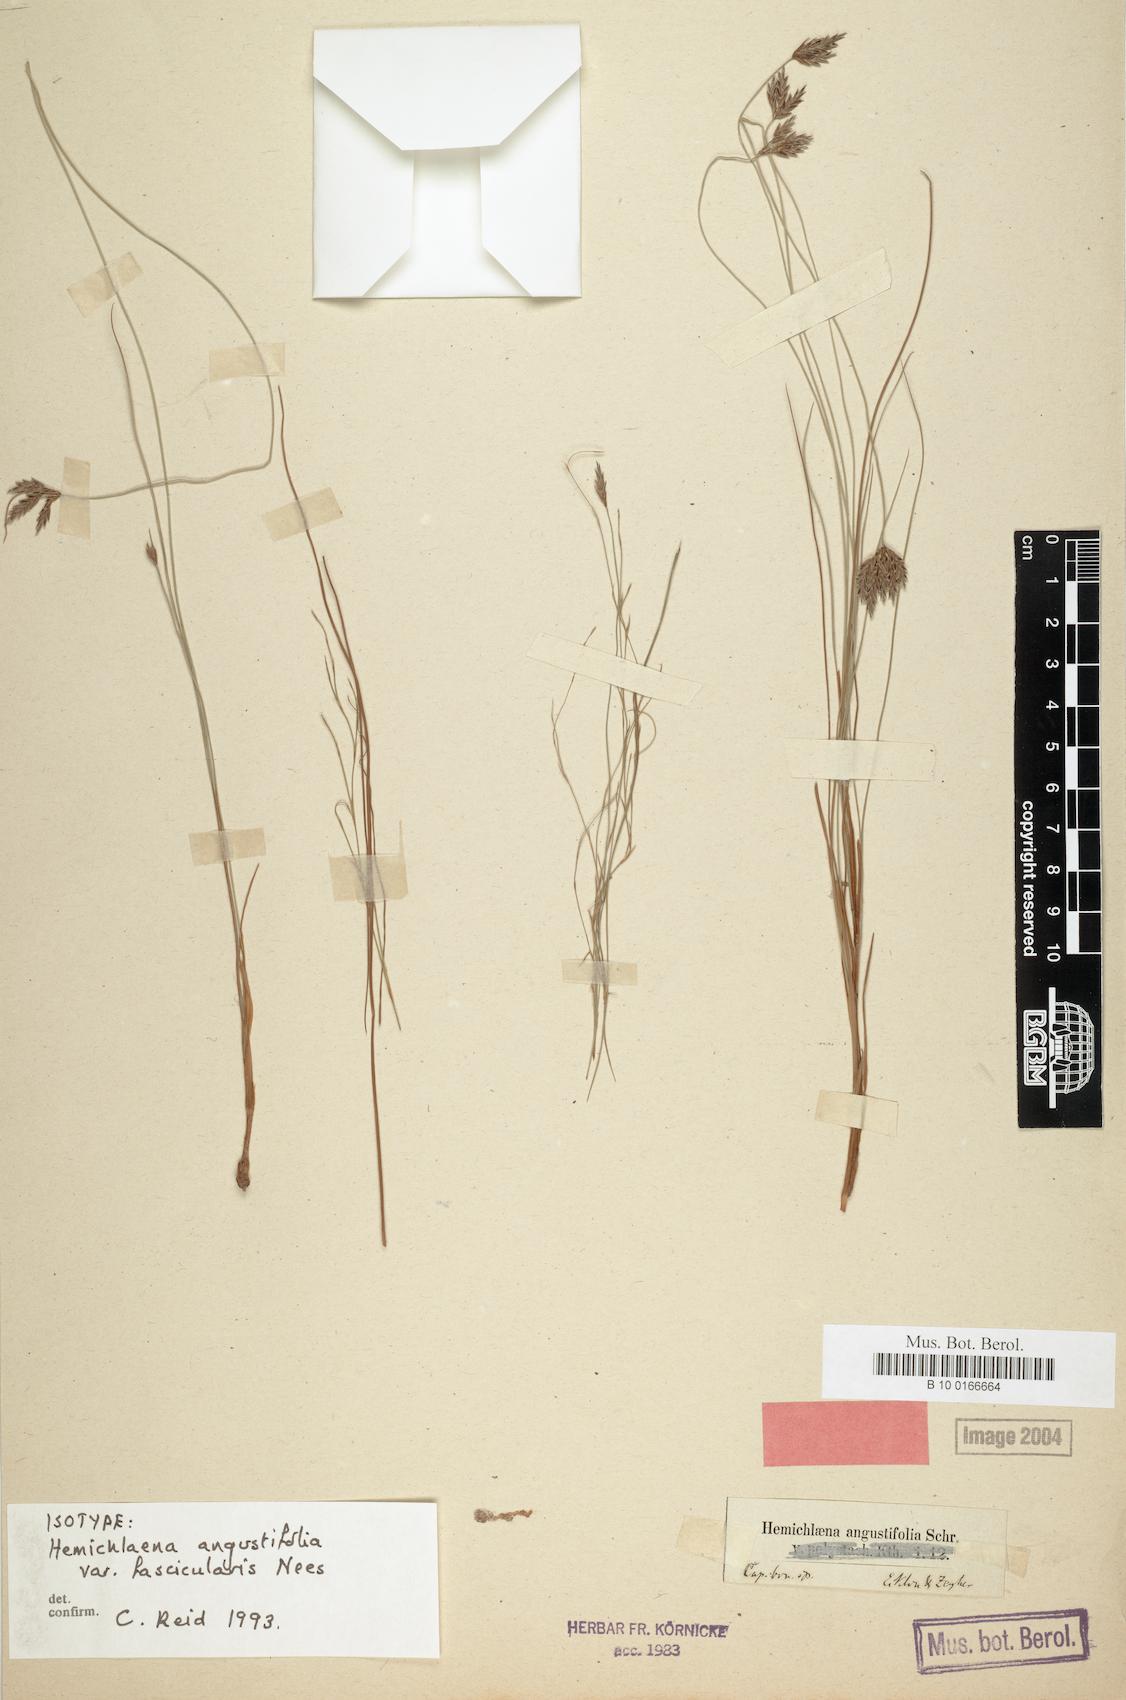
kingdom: Plantae
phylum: Tracheophyta
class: Liliopsida
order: Poales
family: Cyperaceae
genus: Ficinia
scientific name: Ficinia polystachya
